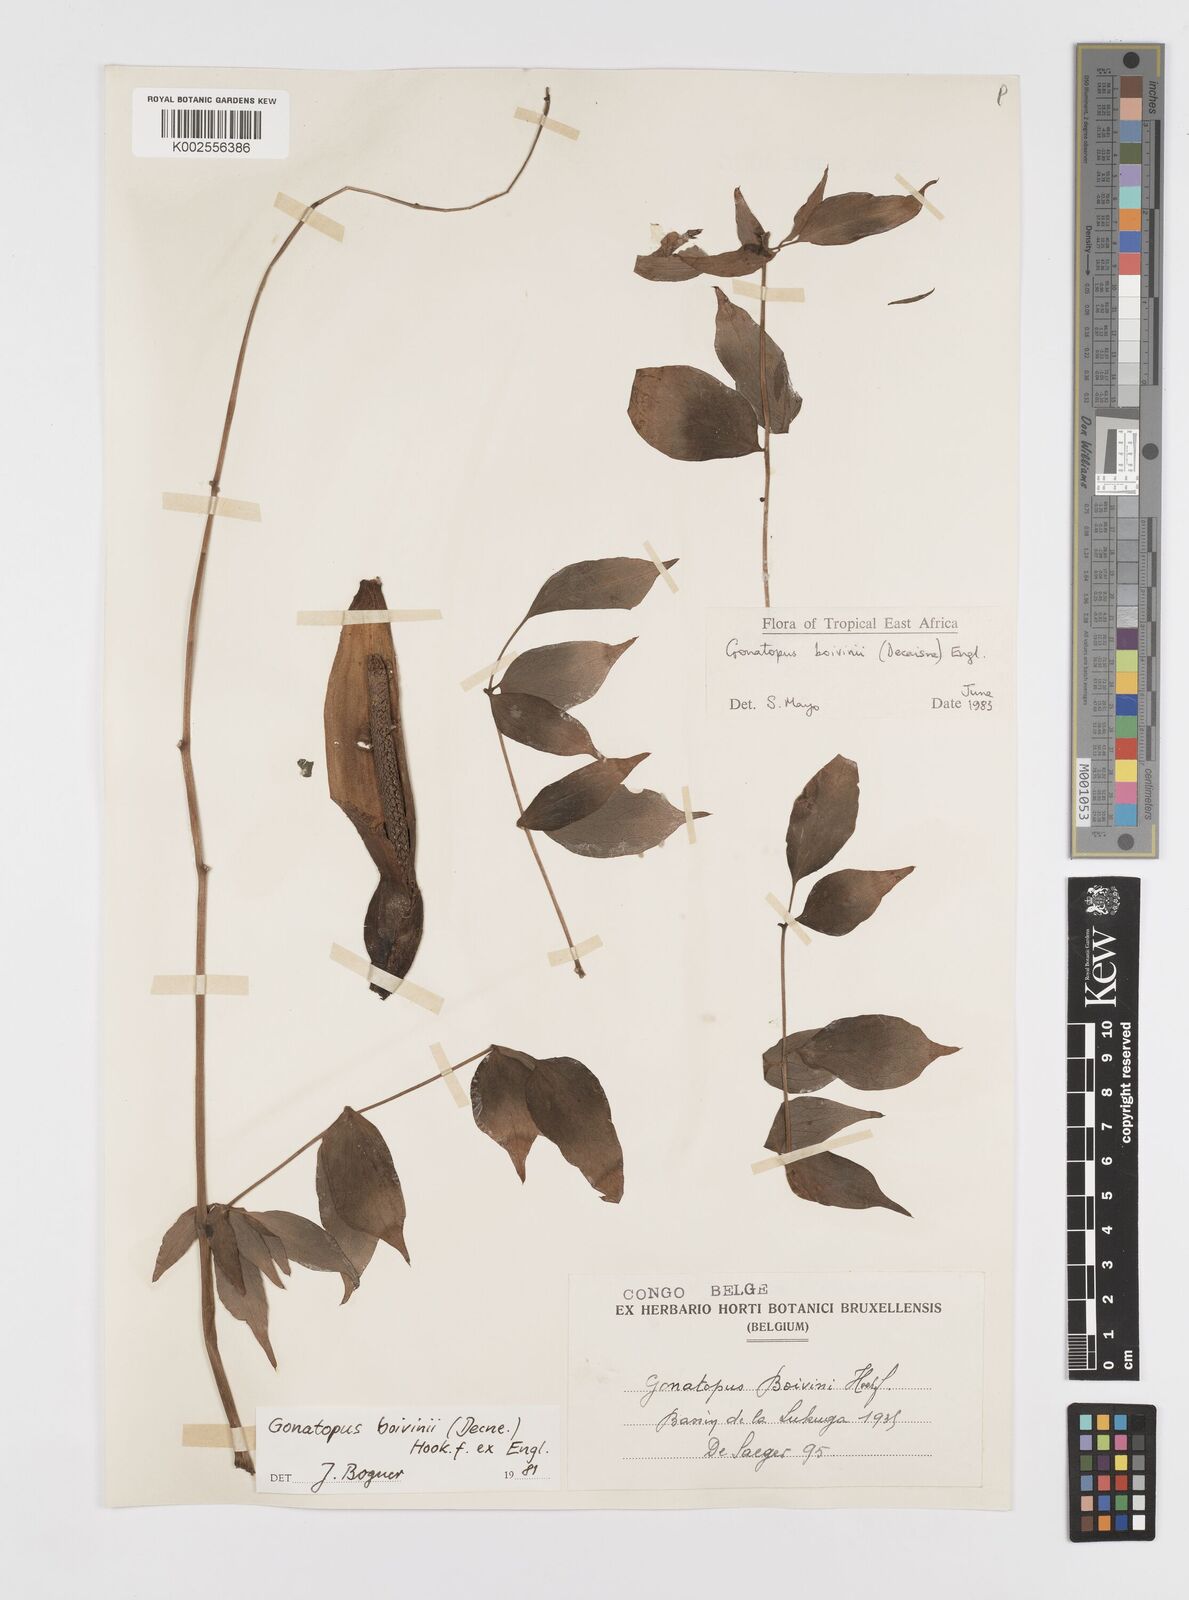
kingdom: Plantae
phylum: Tracheophyta
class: Liliopsida
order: Alismatales
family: Araceae
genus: Gonatopus
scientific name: Gonatopus boivinii
